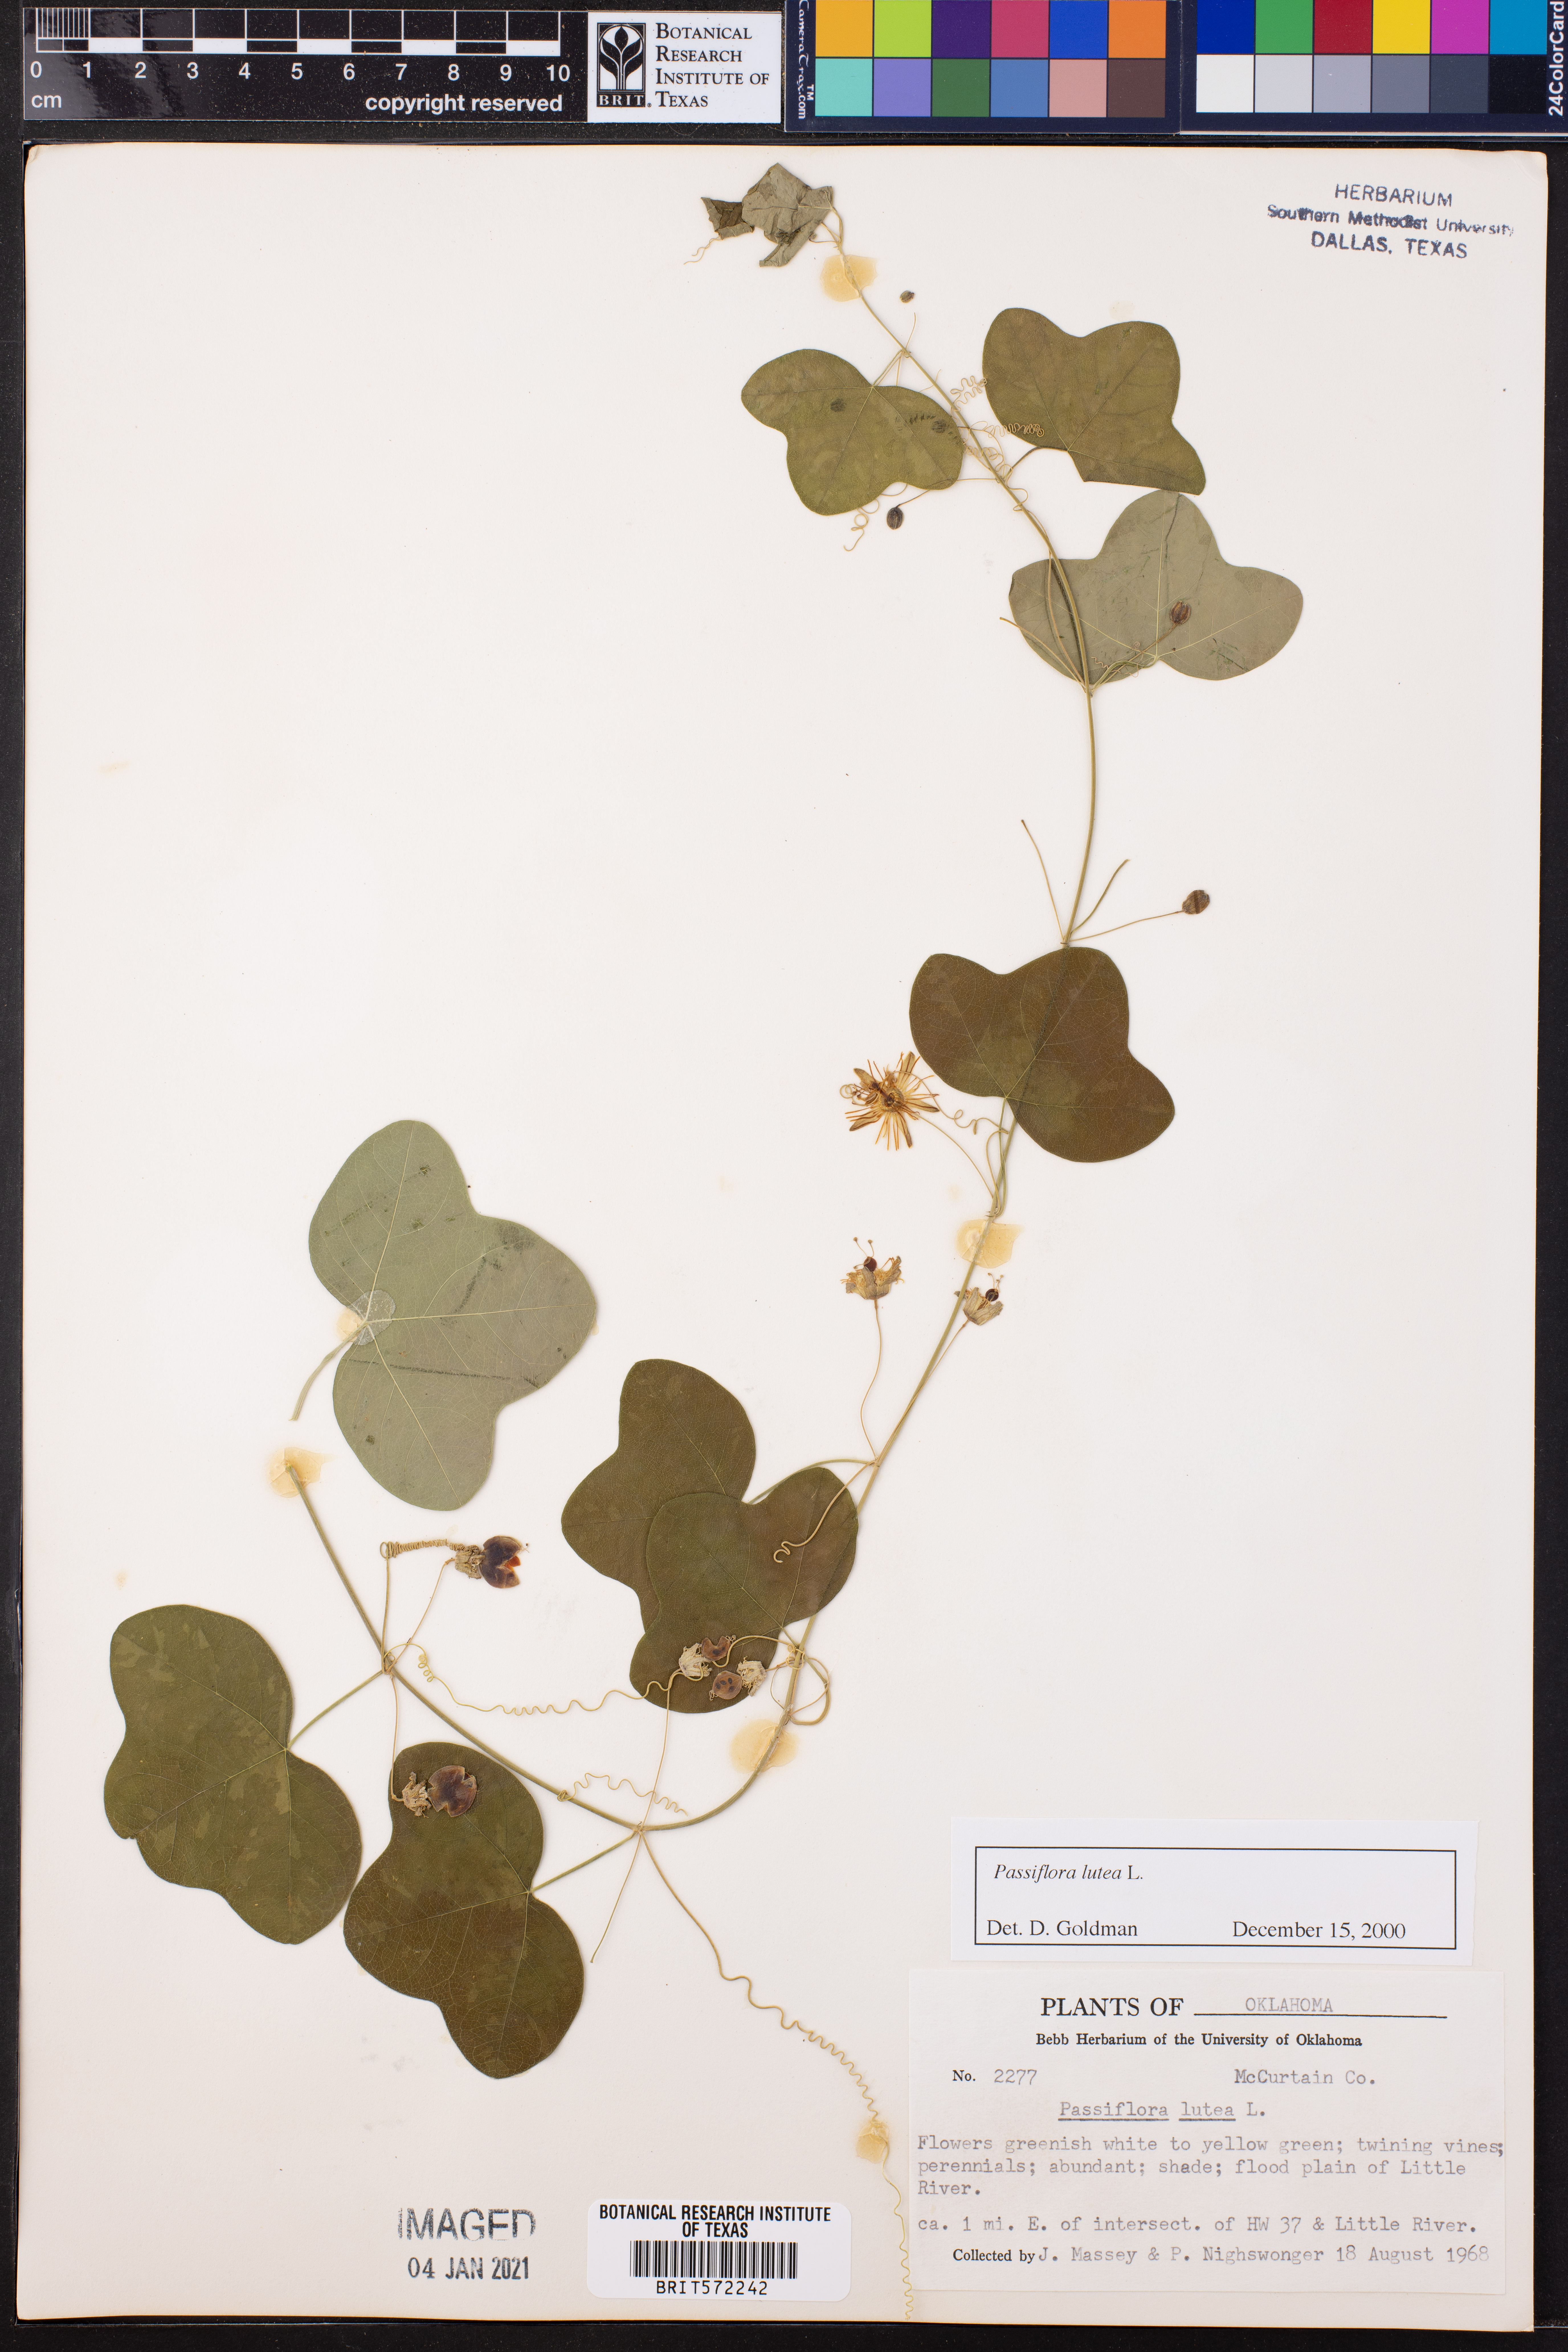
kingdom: Plantae
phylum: Tracheophyta
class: Magnoliopsida
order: Malpighiales
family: Passifloraceae
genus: Passiflora
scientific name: Passiflora lutea
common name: Yellow passionflower
